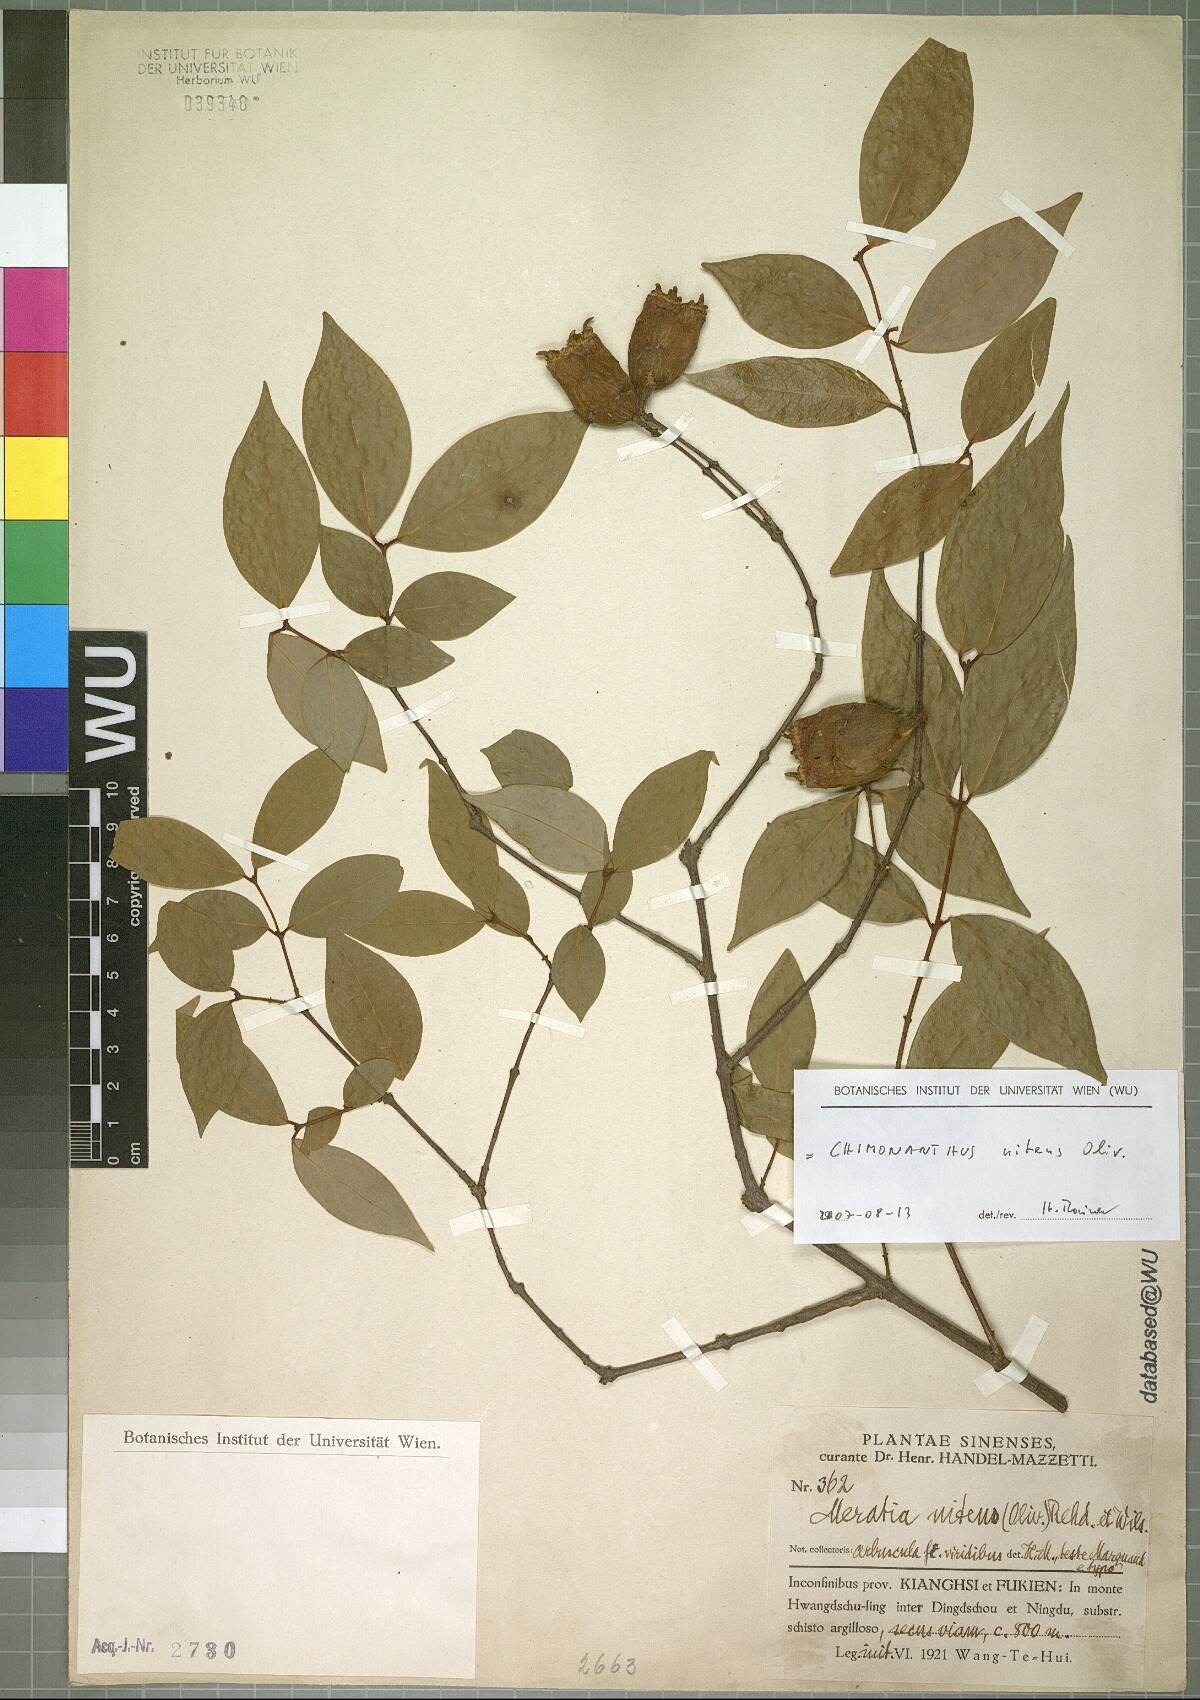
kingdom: Plantae
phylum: Tracheophyta
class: Magnoliopsida
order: Laurales
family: Calycanthaceae
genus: Chimonanthus
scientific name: Chimonanthus nitens
